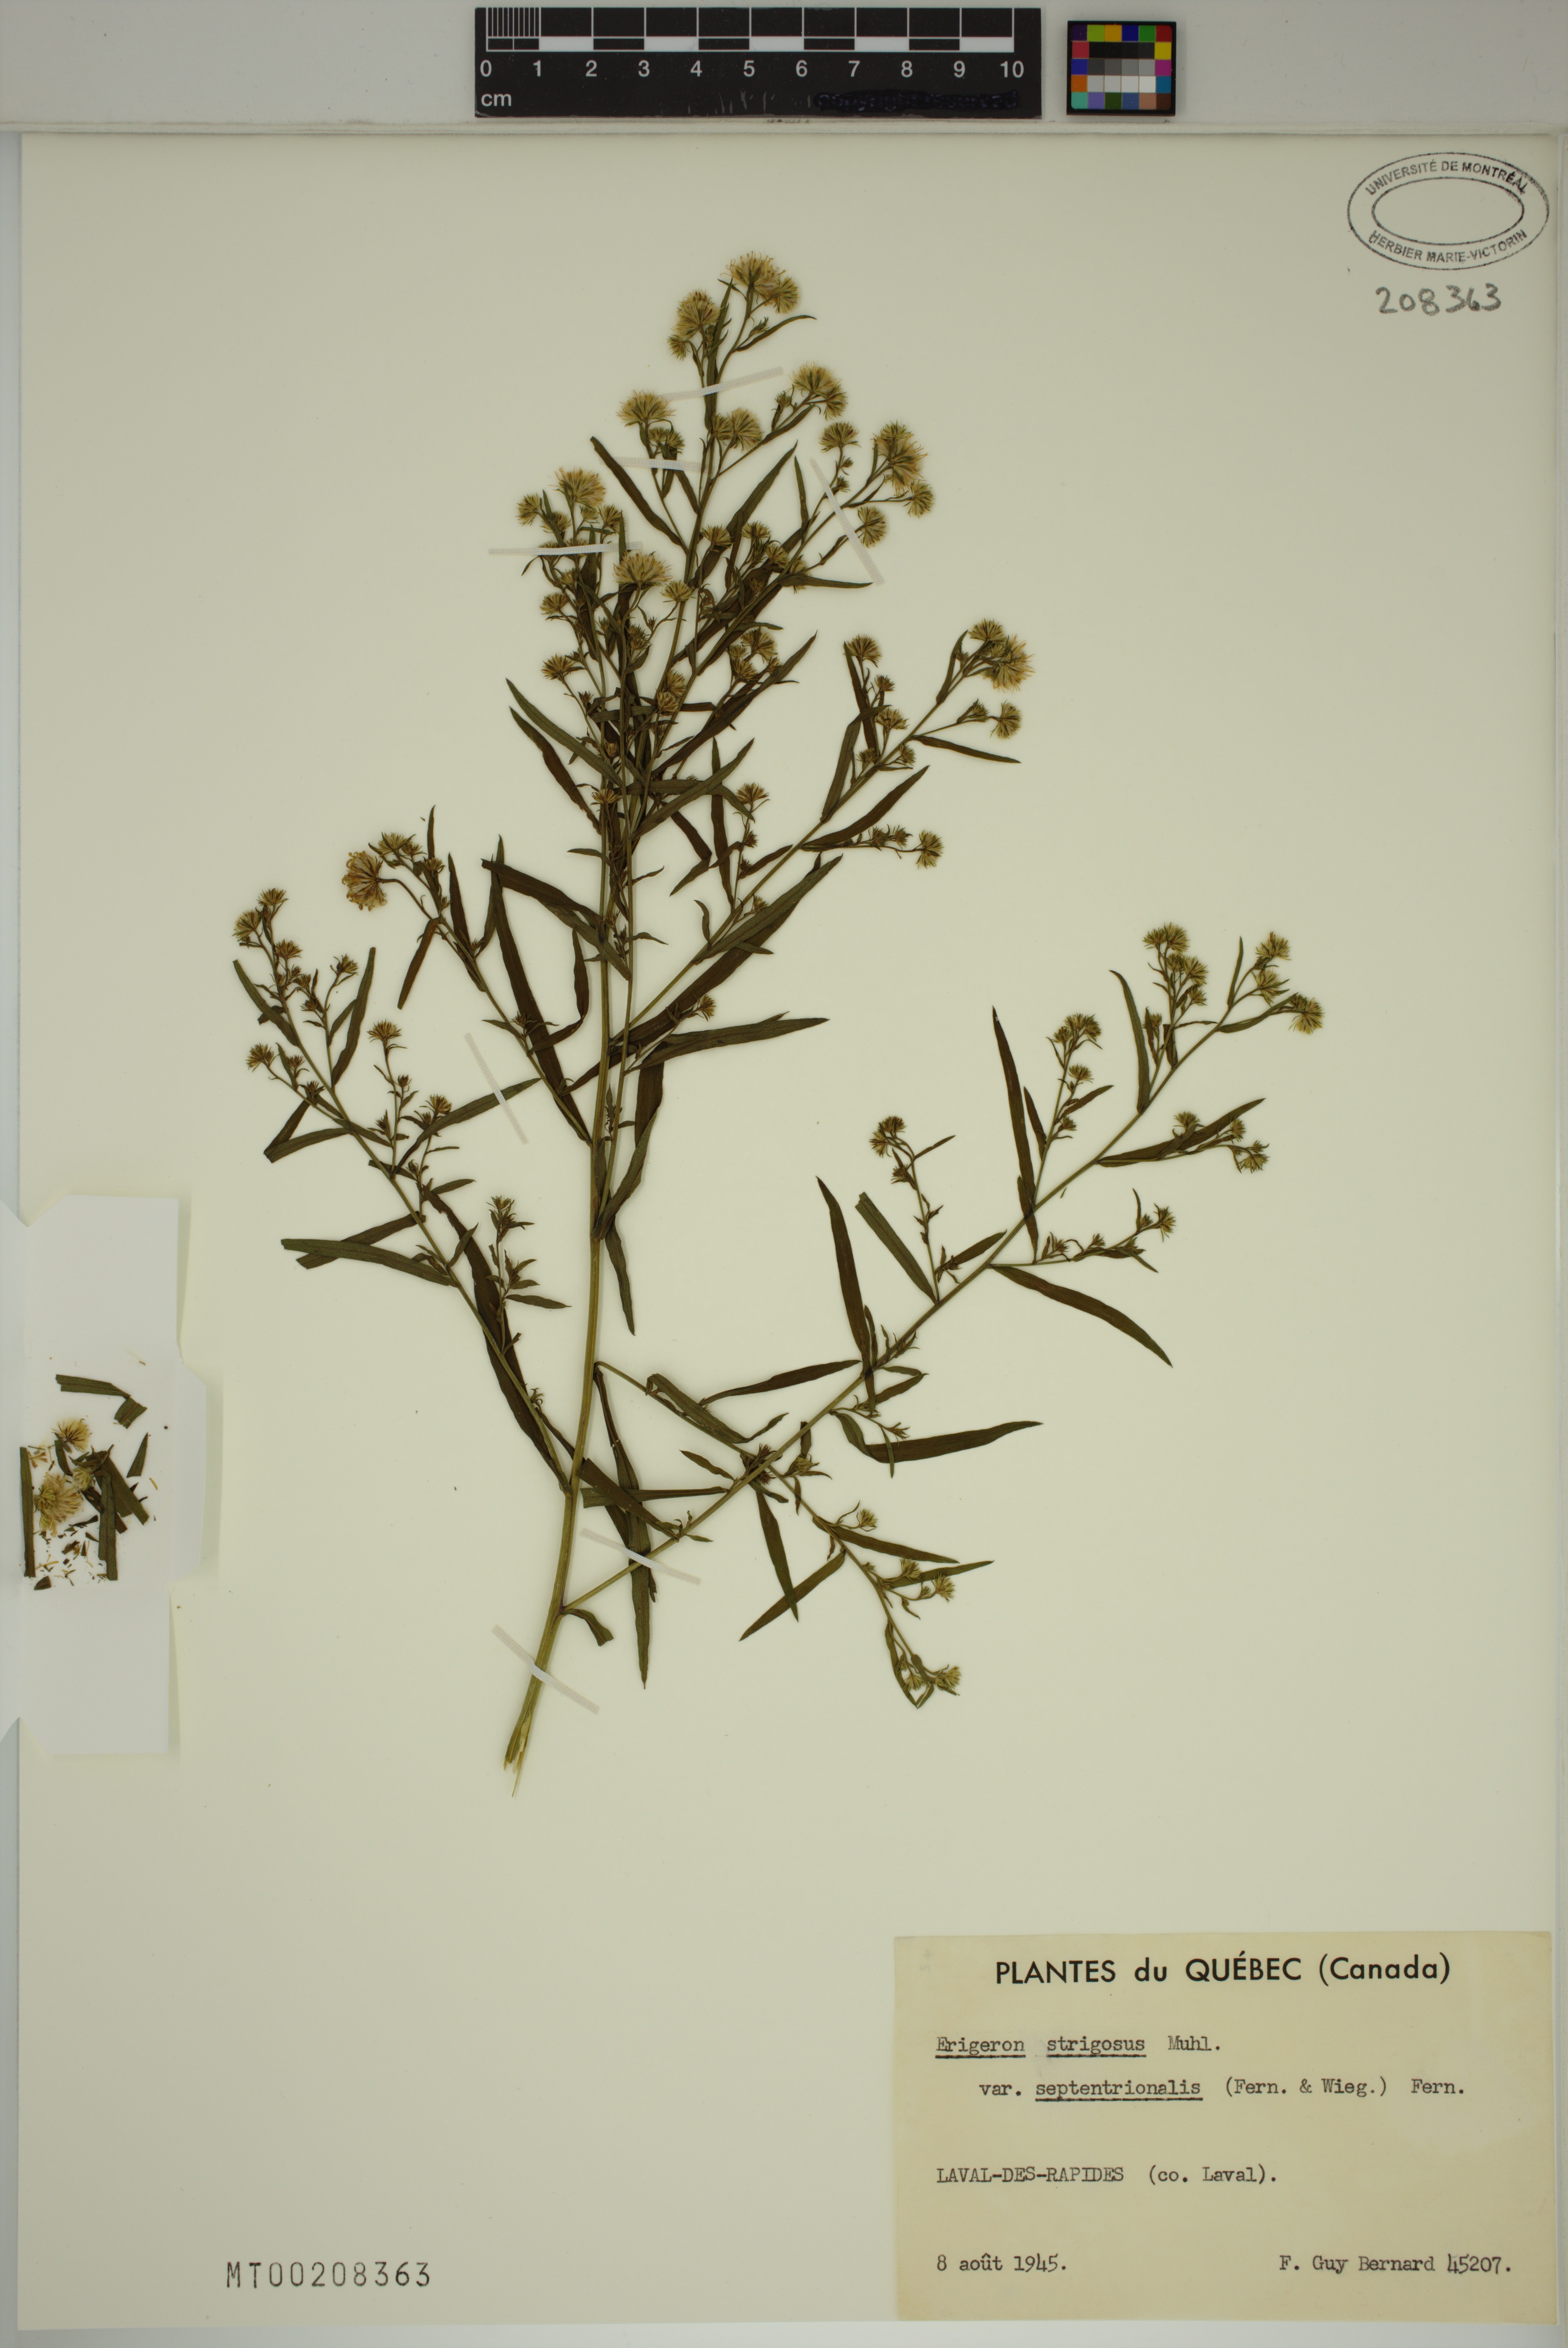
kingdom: Plantae
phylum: Tracheophyta
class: Magnoliopsida
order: Asterales
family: Asteraceae
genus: Symphyotrichum
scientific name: Symphyotrichum lanceolatum
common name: Panicled aster
